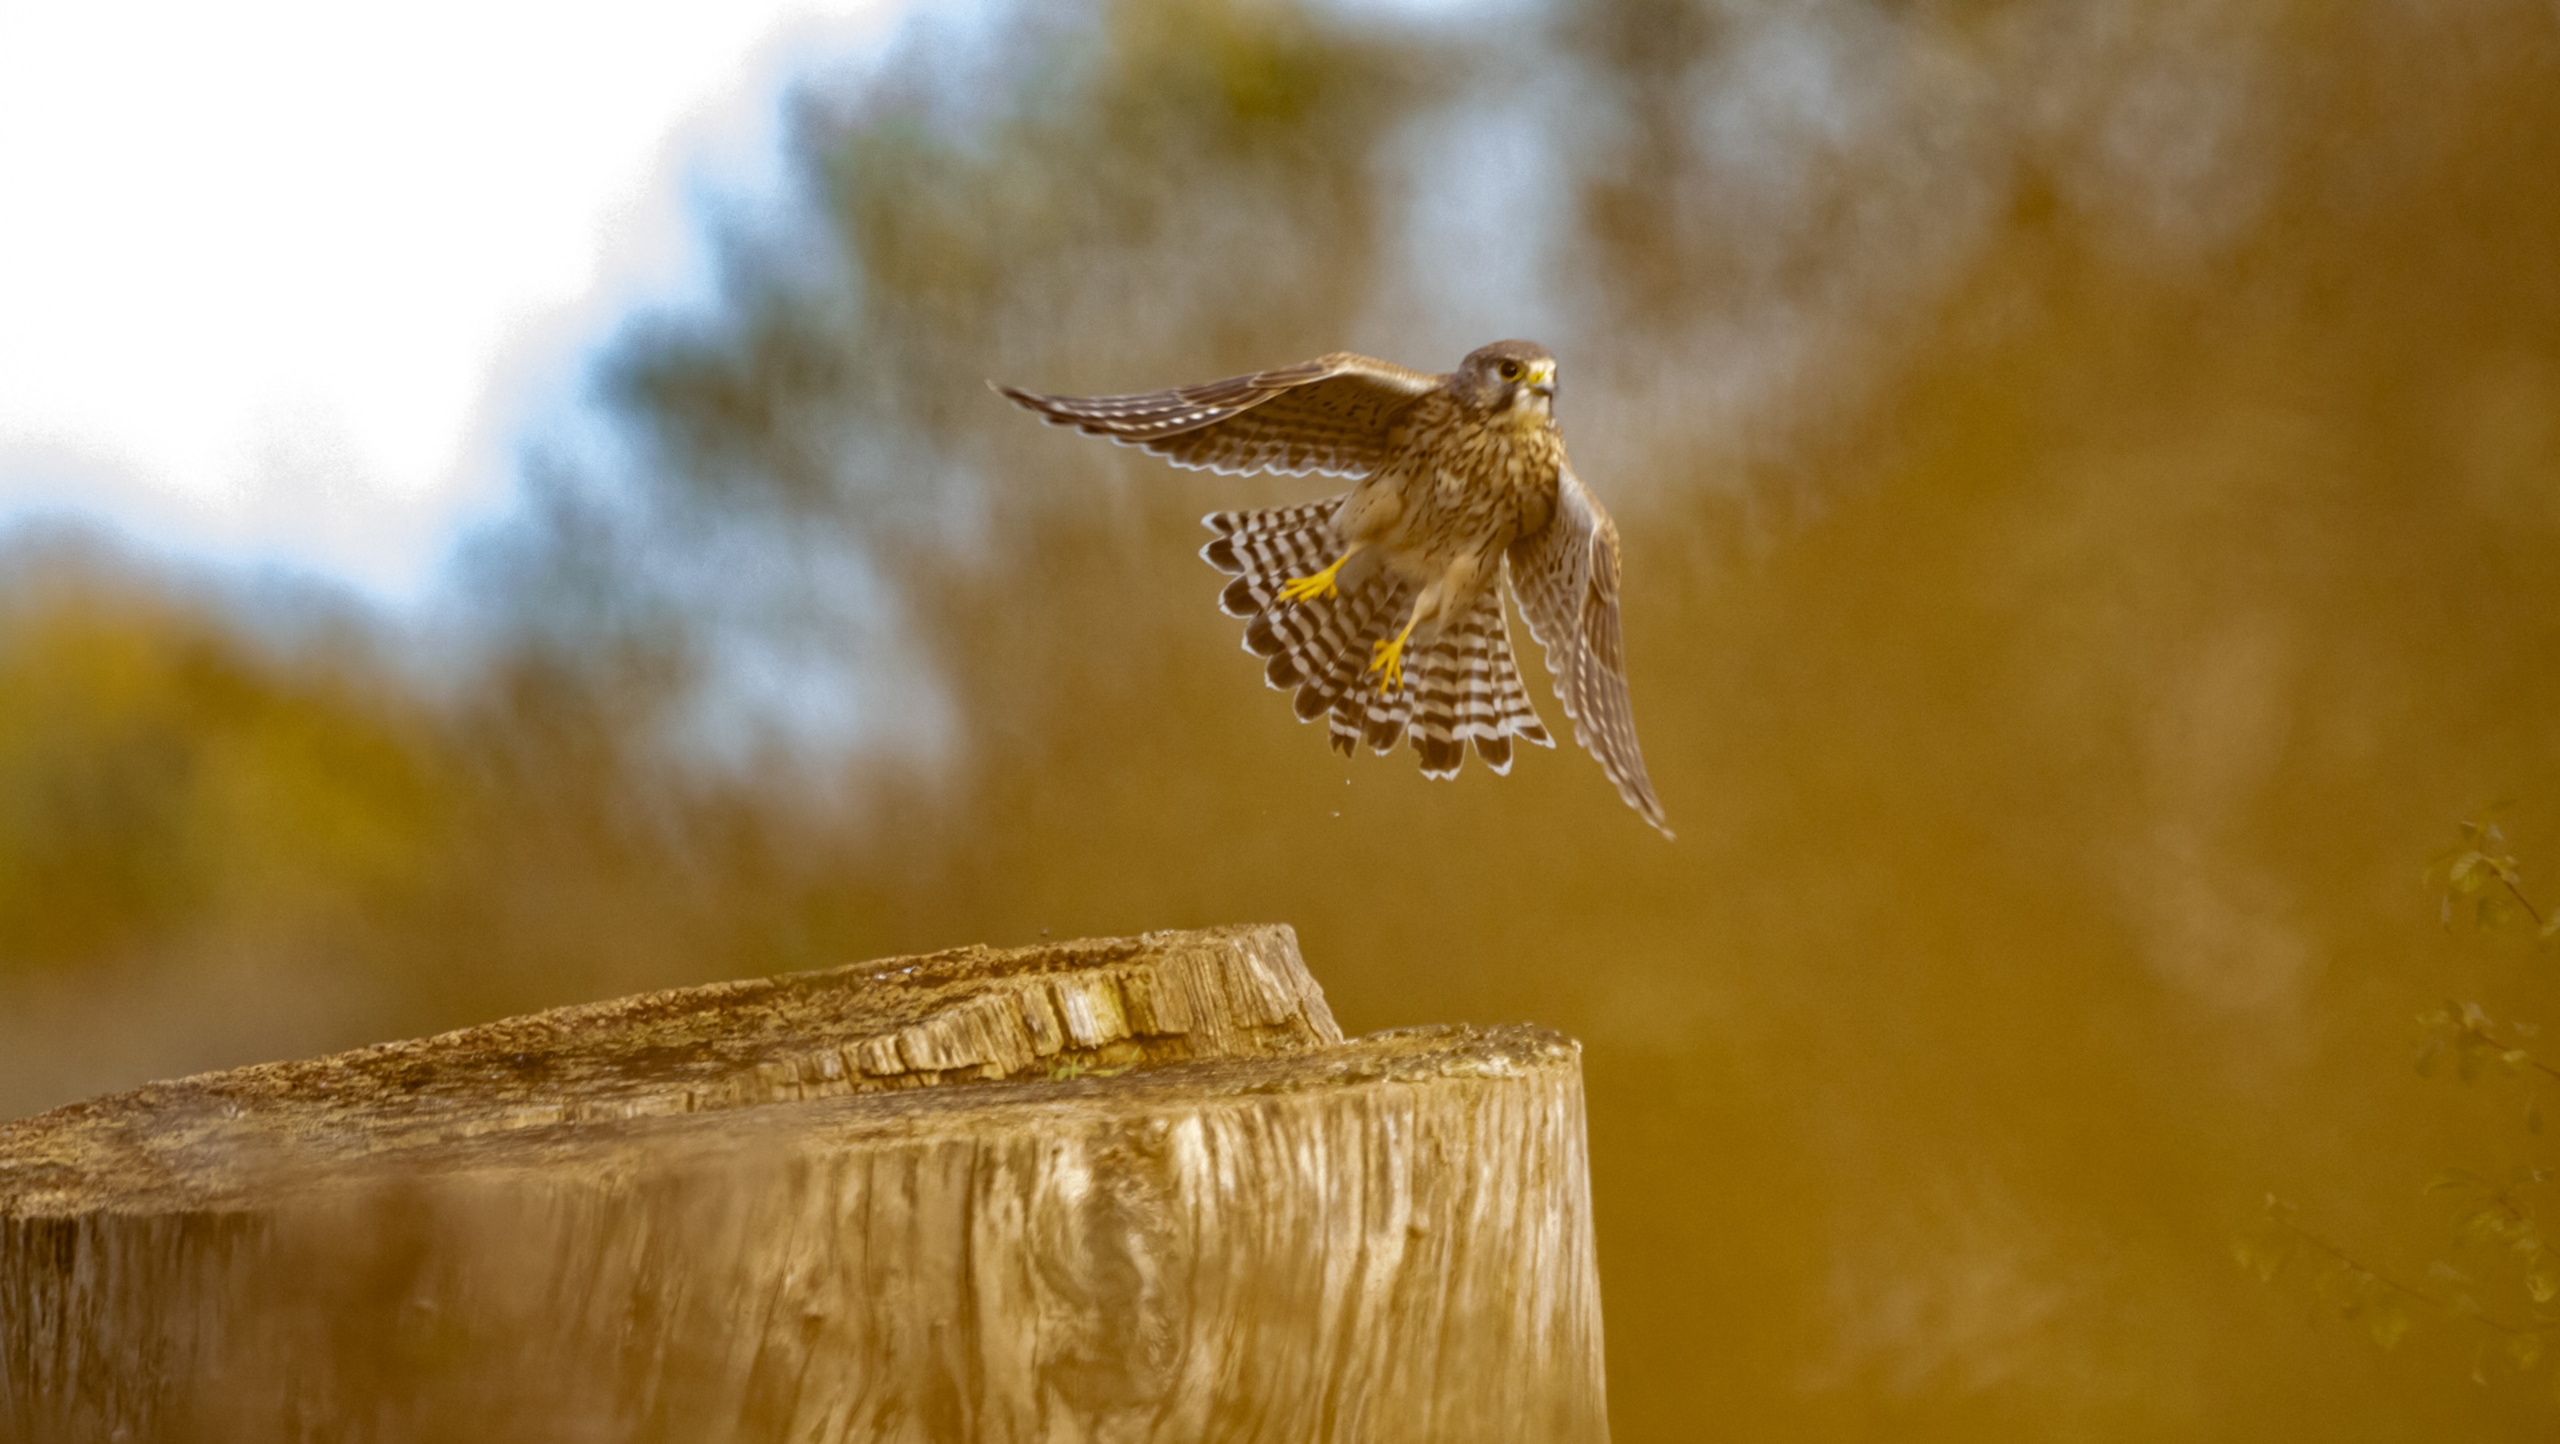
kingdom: Animalia
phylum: Chordata
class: Aves
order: Falconiformes
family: Falconidae
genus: Falco
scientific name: Falco tinnunculus
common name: Tårnfalk
